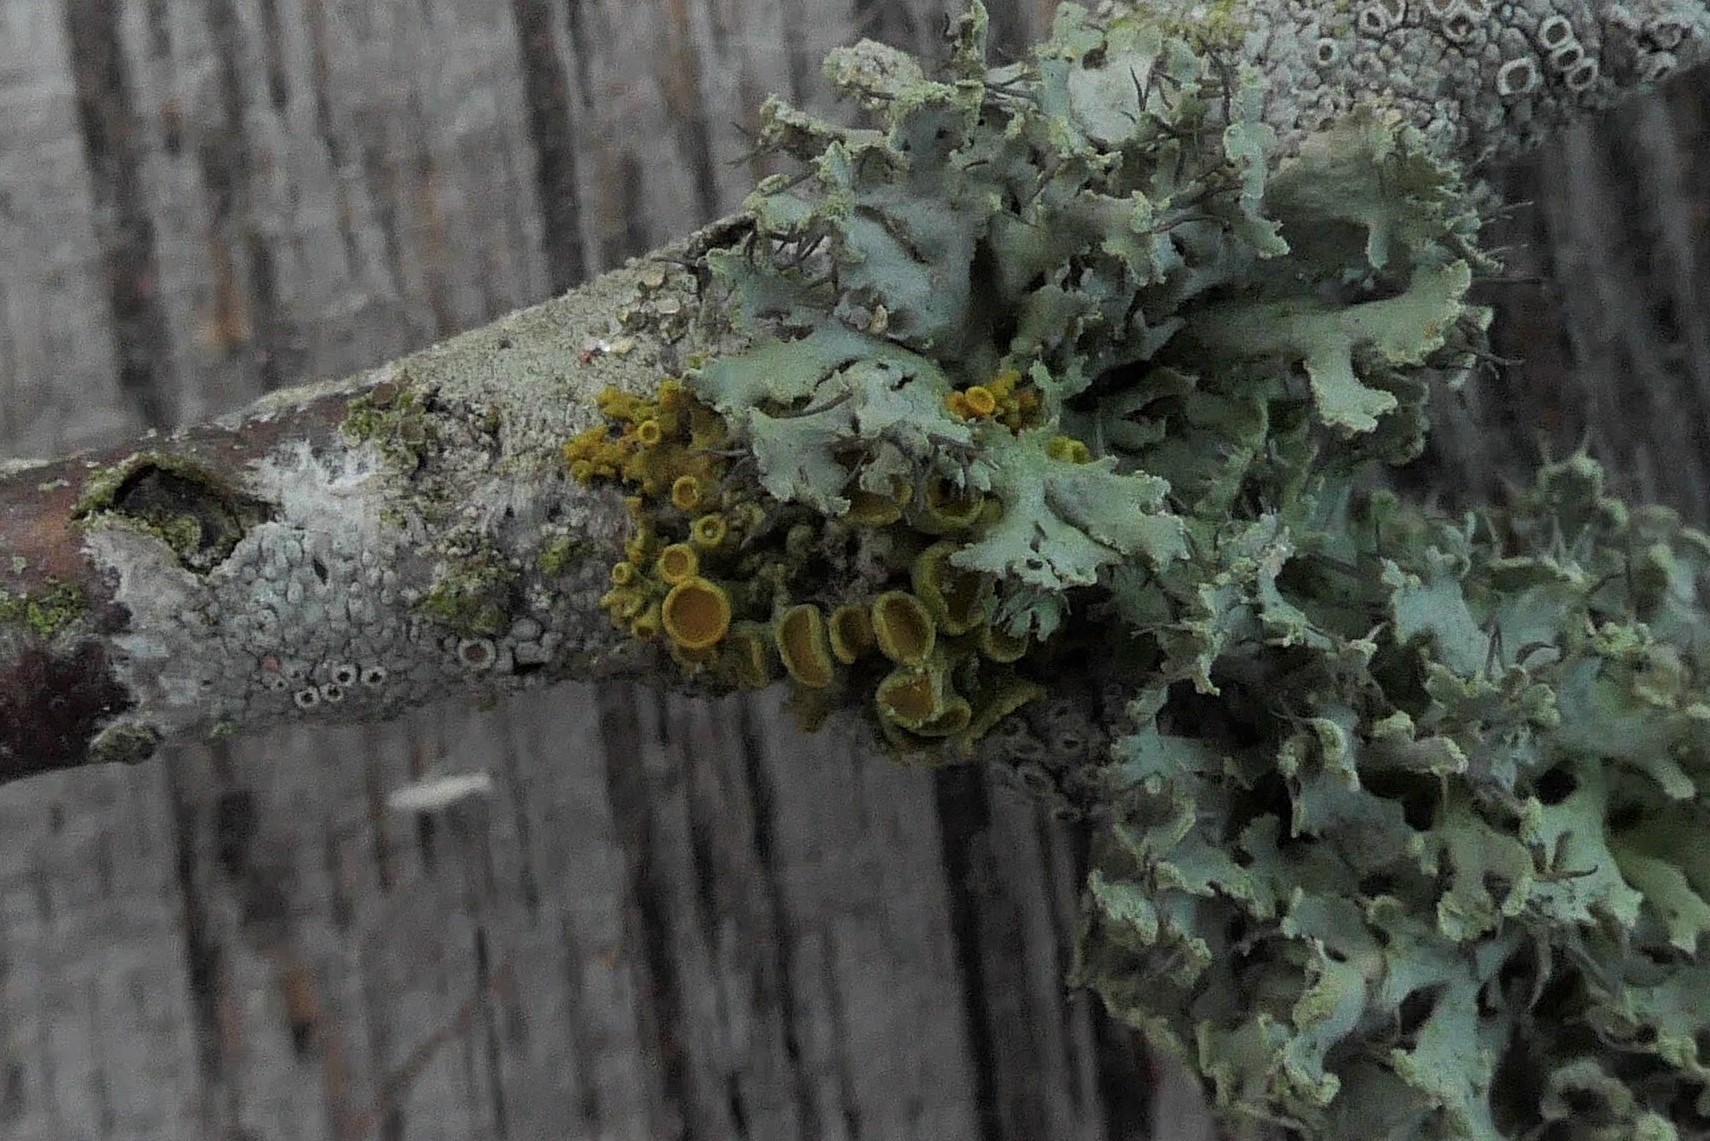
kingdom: Fungi
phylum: Ascomycota
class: Lecanoromycetes
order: Teloschistales
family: Teloschistaceae
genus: Polycauliona
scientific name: Polycauliona polycarpa
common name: mangefrugtet orangelav
